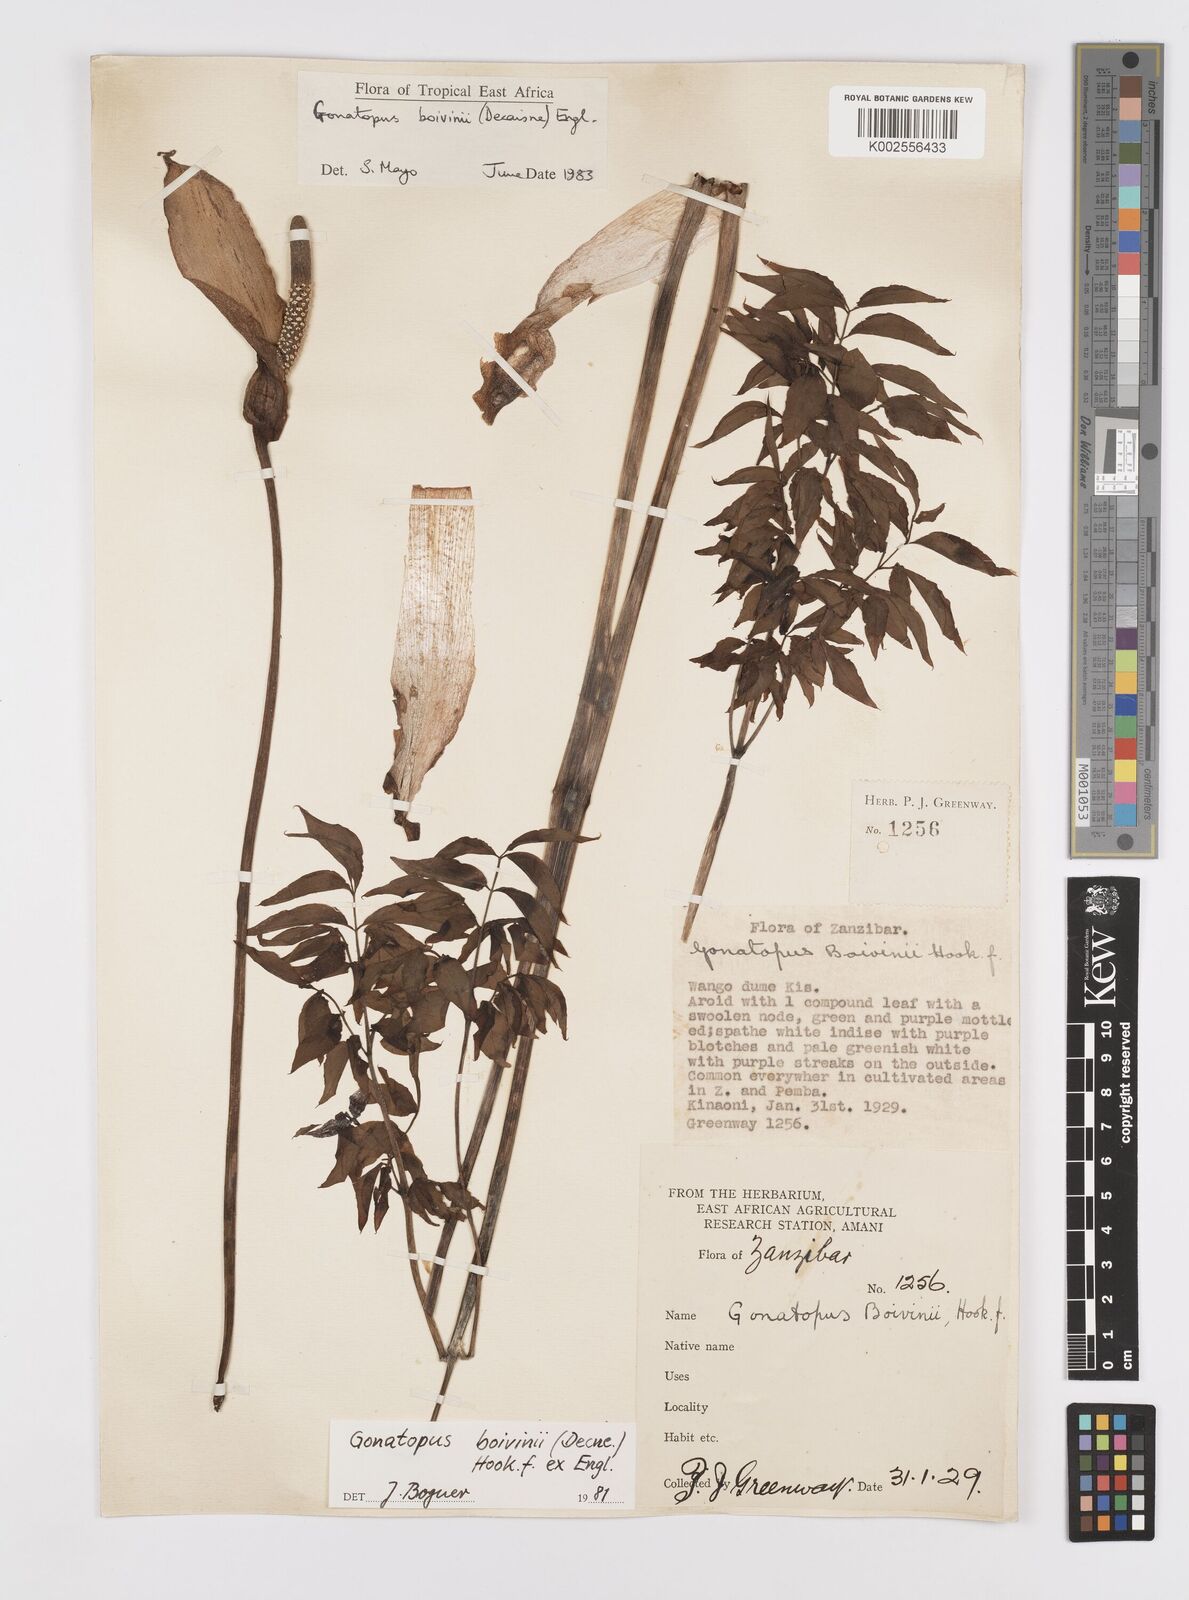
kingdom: Plantae
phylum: Tracheophyta
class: Liliopsida
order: Alismatales
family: Araceae
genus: Gonatopus
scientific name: Gonatopus boivinii
